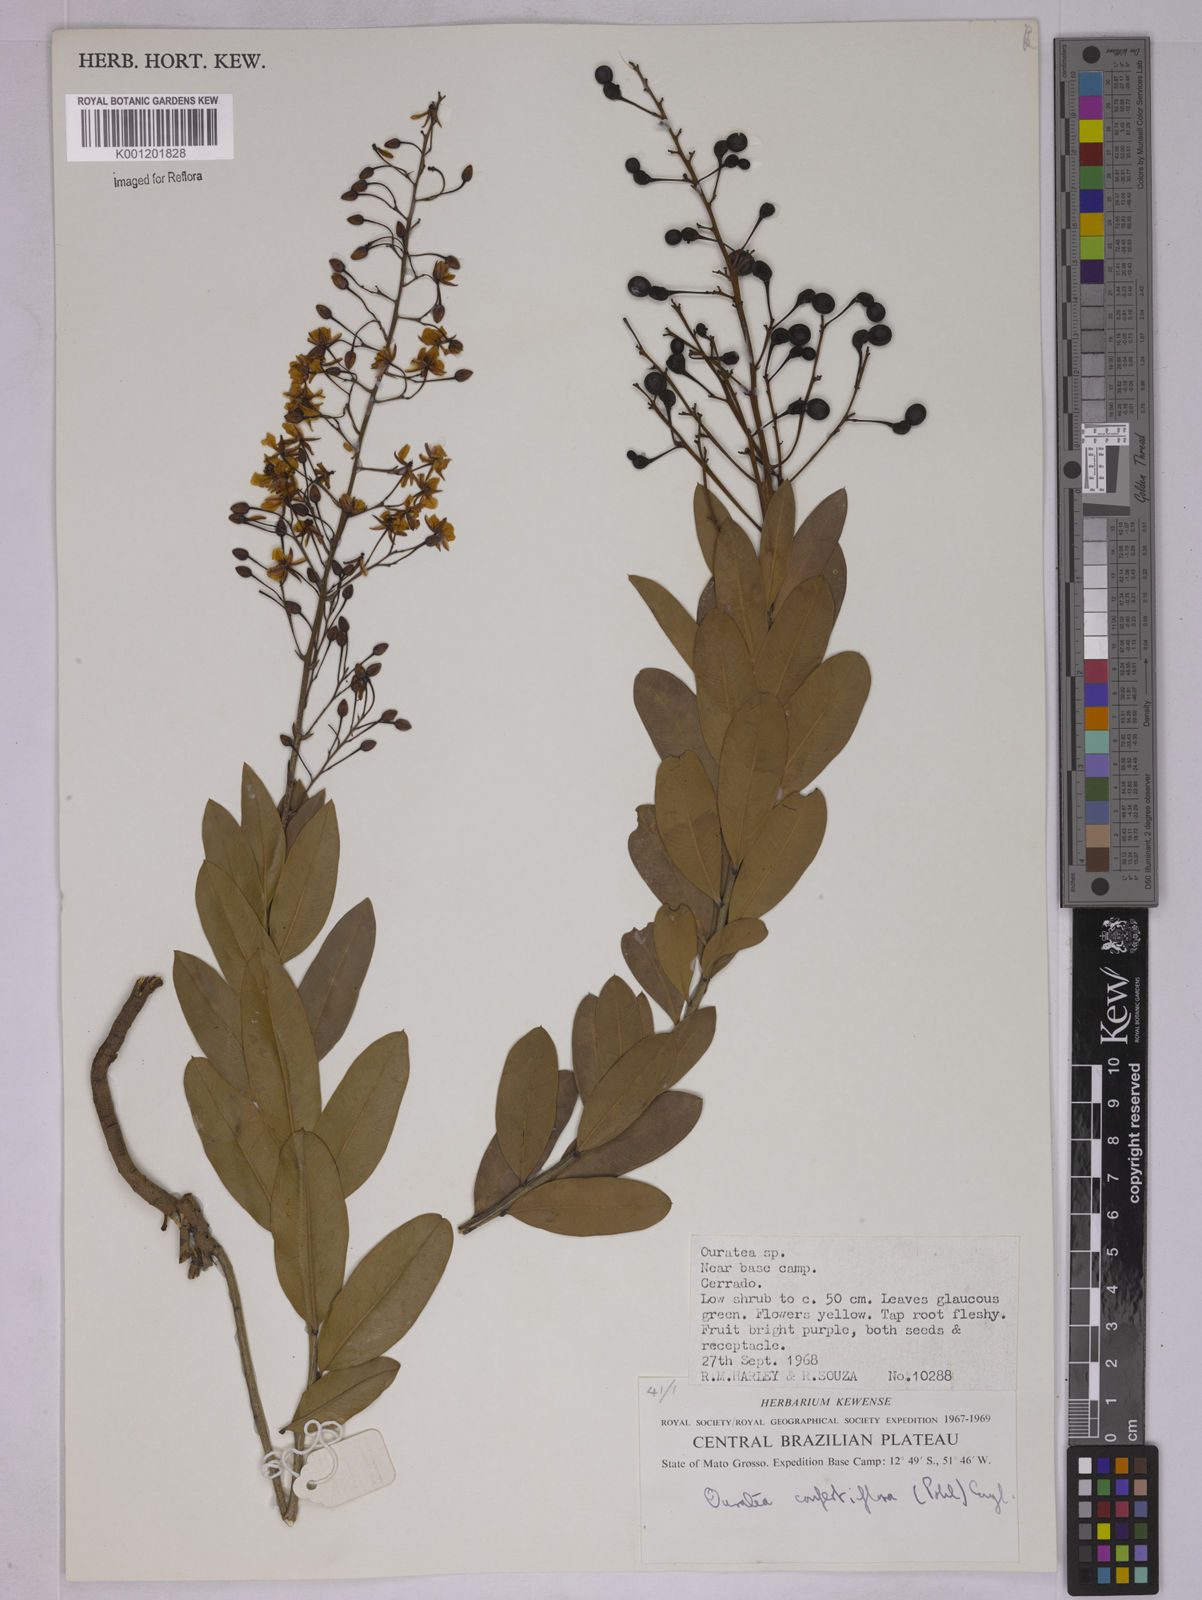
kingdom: Plantae
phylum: Tracheophyta
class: Magnoliopsida
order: Malpighiales
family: Ochnaceae
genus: Ouratea
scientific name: Ouratea confertiflora
